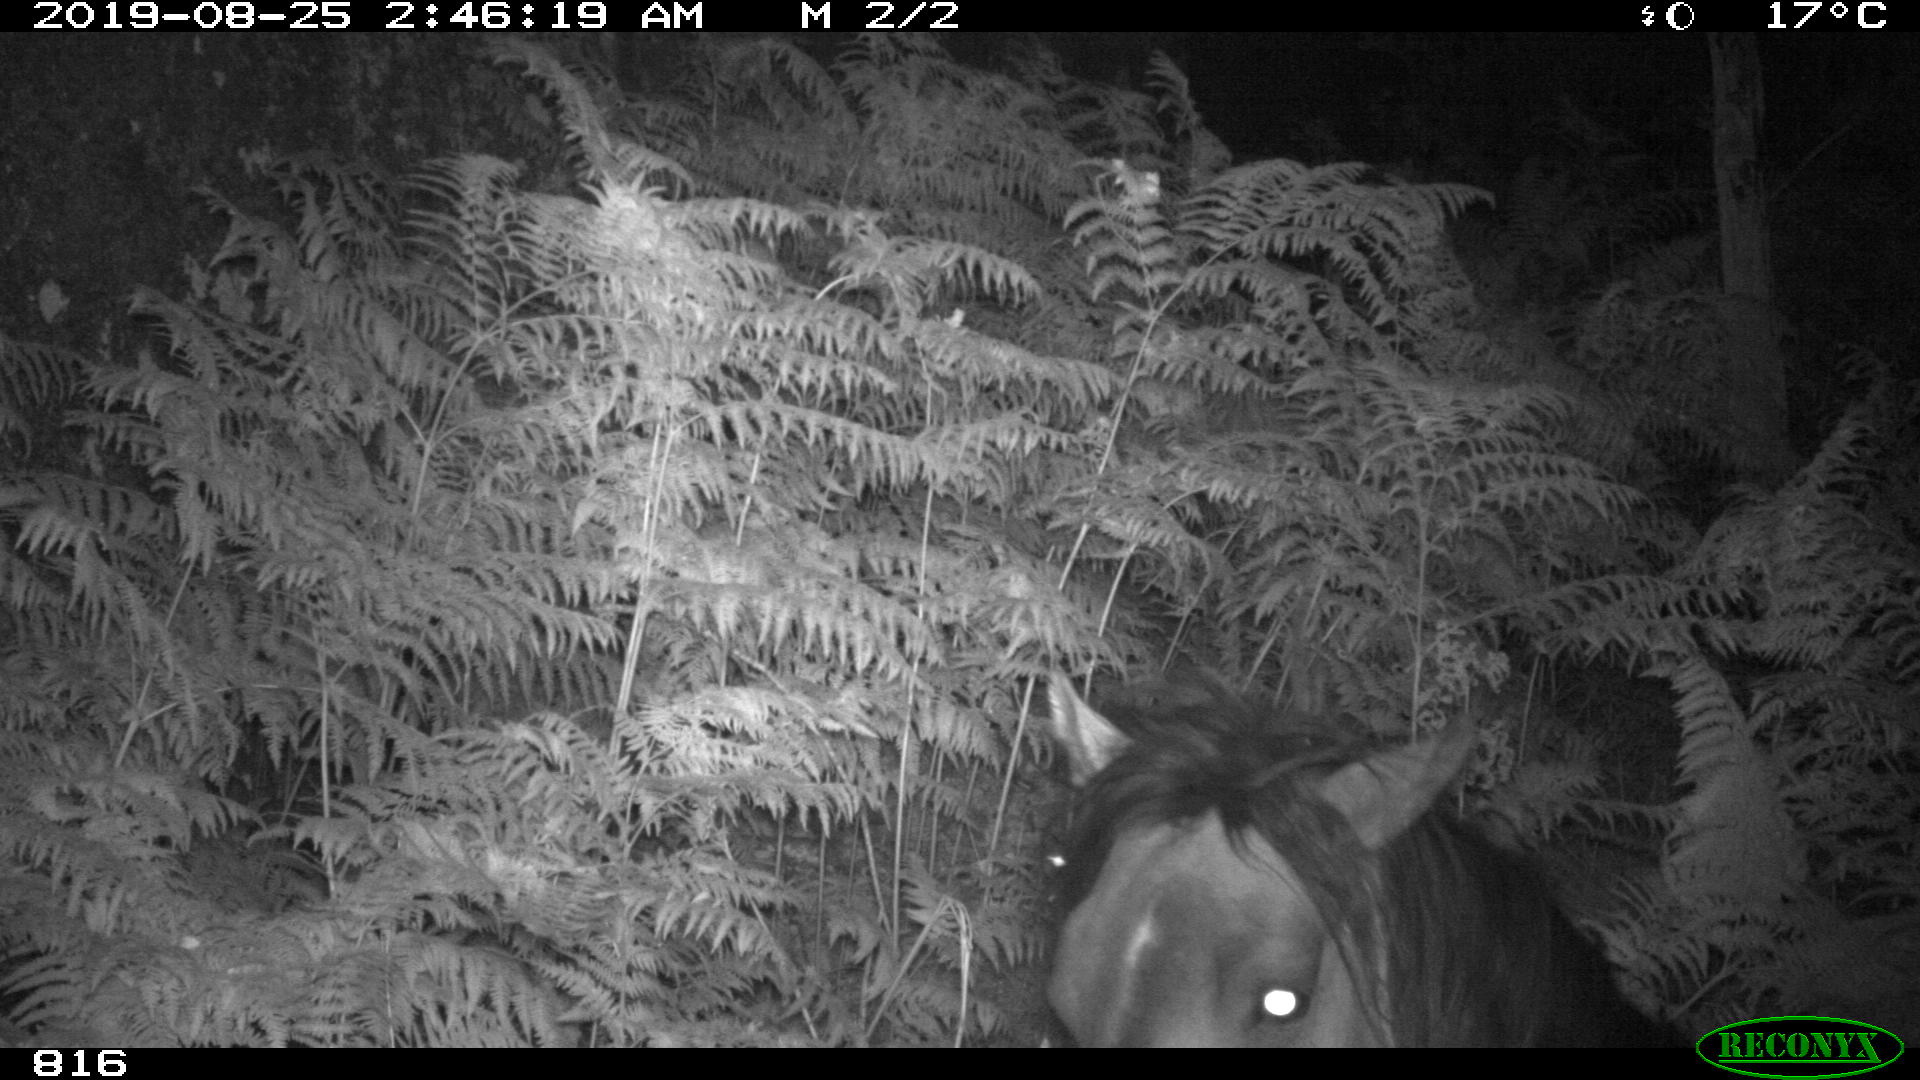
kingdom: Animalia
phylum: Chordata
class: Mammalia
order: Perissodactyla
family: Equidae
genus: Equus
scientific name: Equus caballus
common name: Horse
